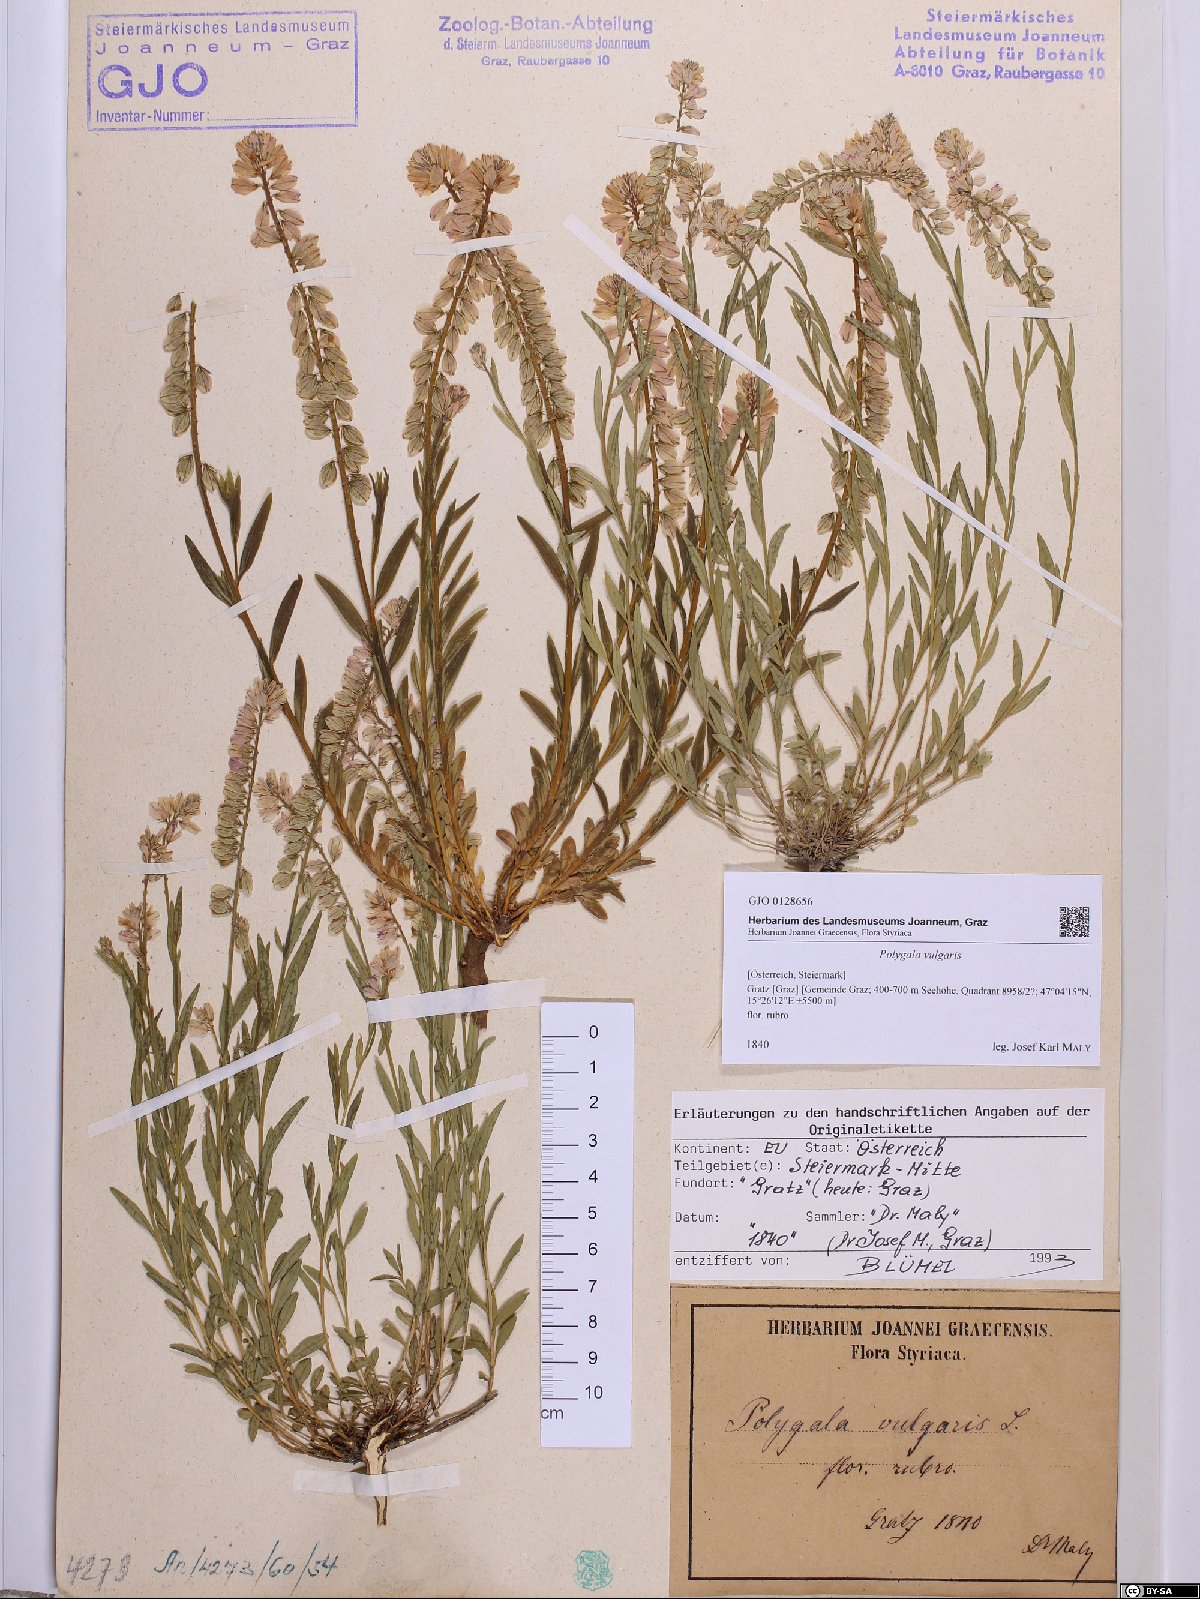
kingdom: Plantae
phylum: Tracheophyta
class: Magnoliopsida
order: Fabales
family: Polygalaceae
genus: Polygala
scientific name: Polygala vulgaris
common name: Common milkwort
